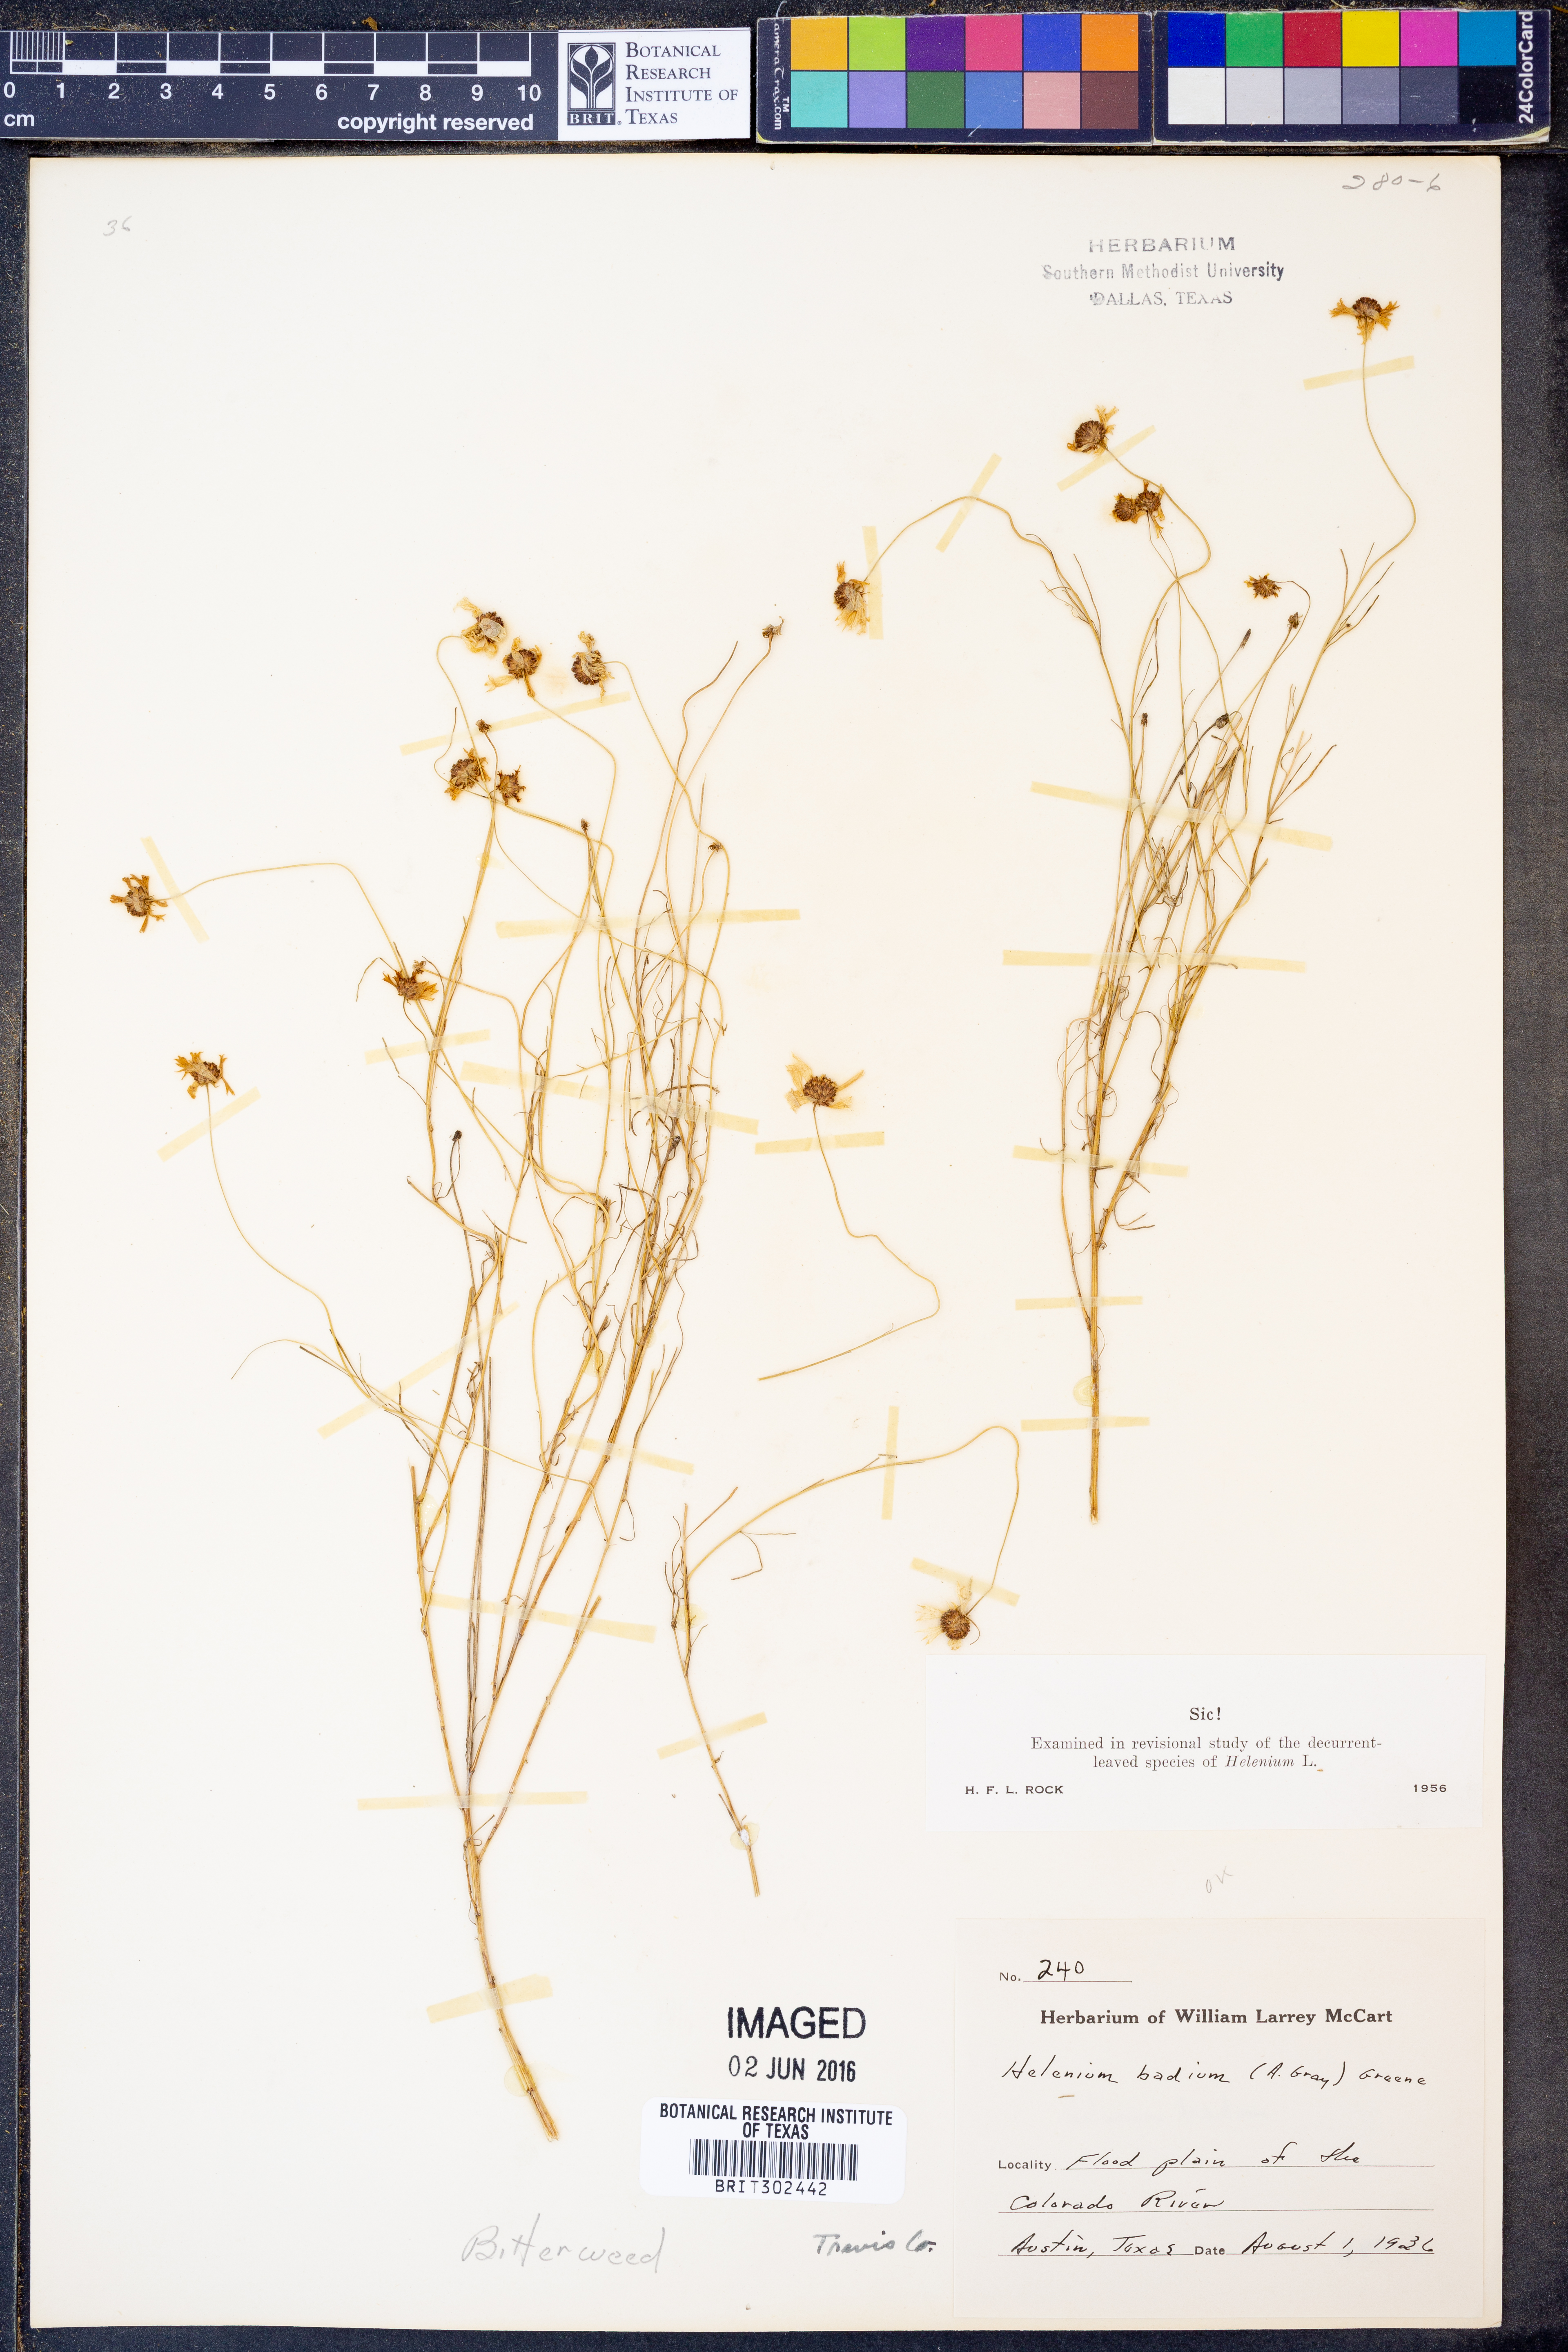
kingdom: Plantae
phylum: Tracheophyta
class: Magnoliopsida
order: Asterales
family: Asteraceae
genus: Helenium
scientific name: Helenium amarum
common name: Bitter sneezeweed
